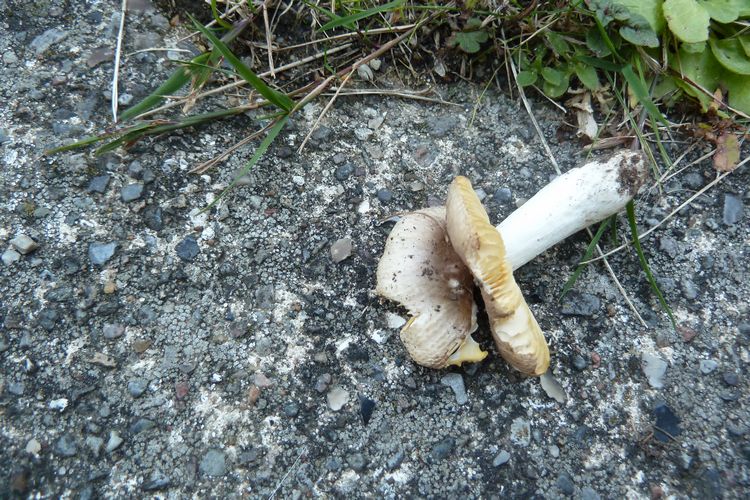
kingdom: Fungi
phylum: Basidiomycota
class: Agaricomycetes
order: Russulales
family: Russulaceae
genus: Russula
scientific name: Russula odorata
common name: duft-skørhat
